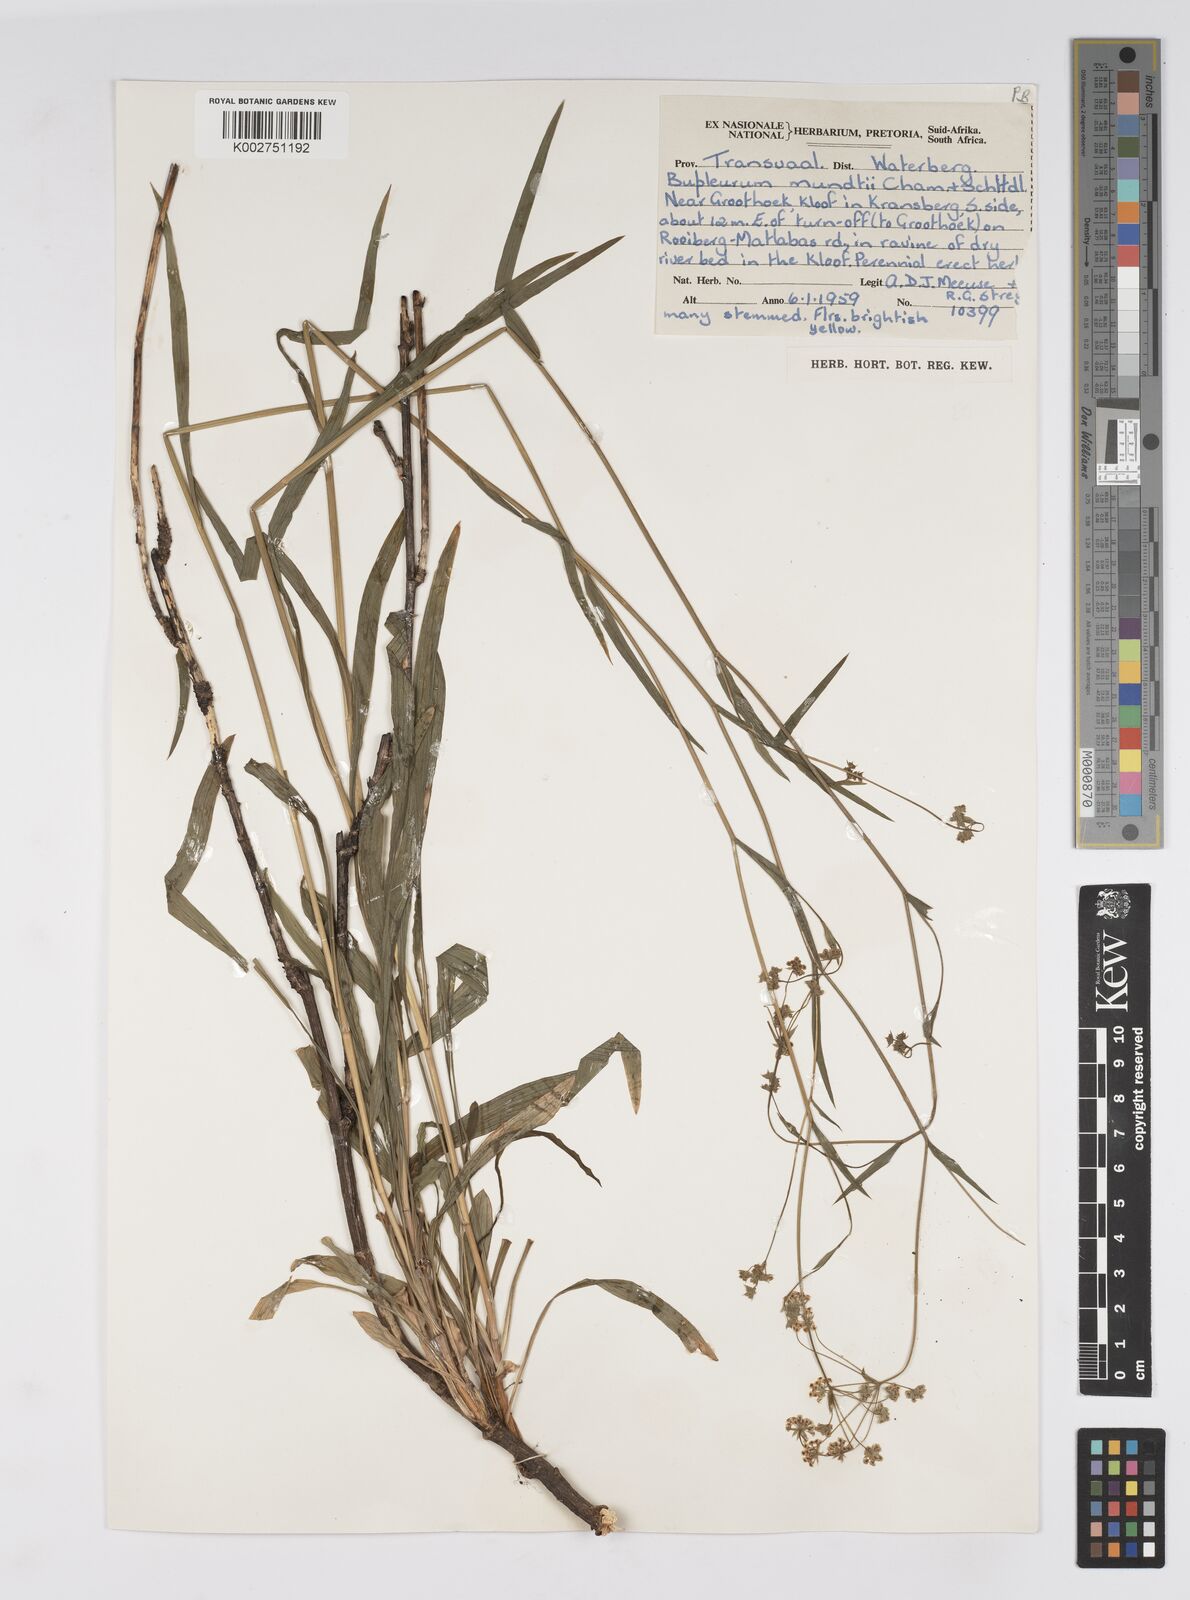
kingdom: Plantae
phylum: Tracheophyta
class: Magnoliopsida
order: Apiales
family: Apiaceae
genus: Bupleurum
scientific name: Bupleurum mundii
